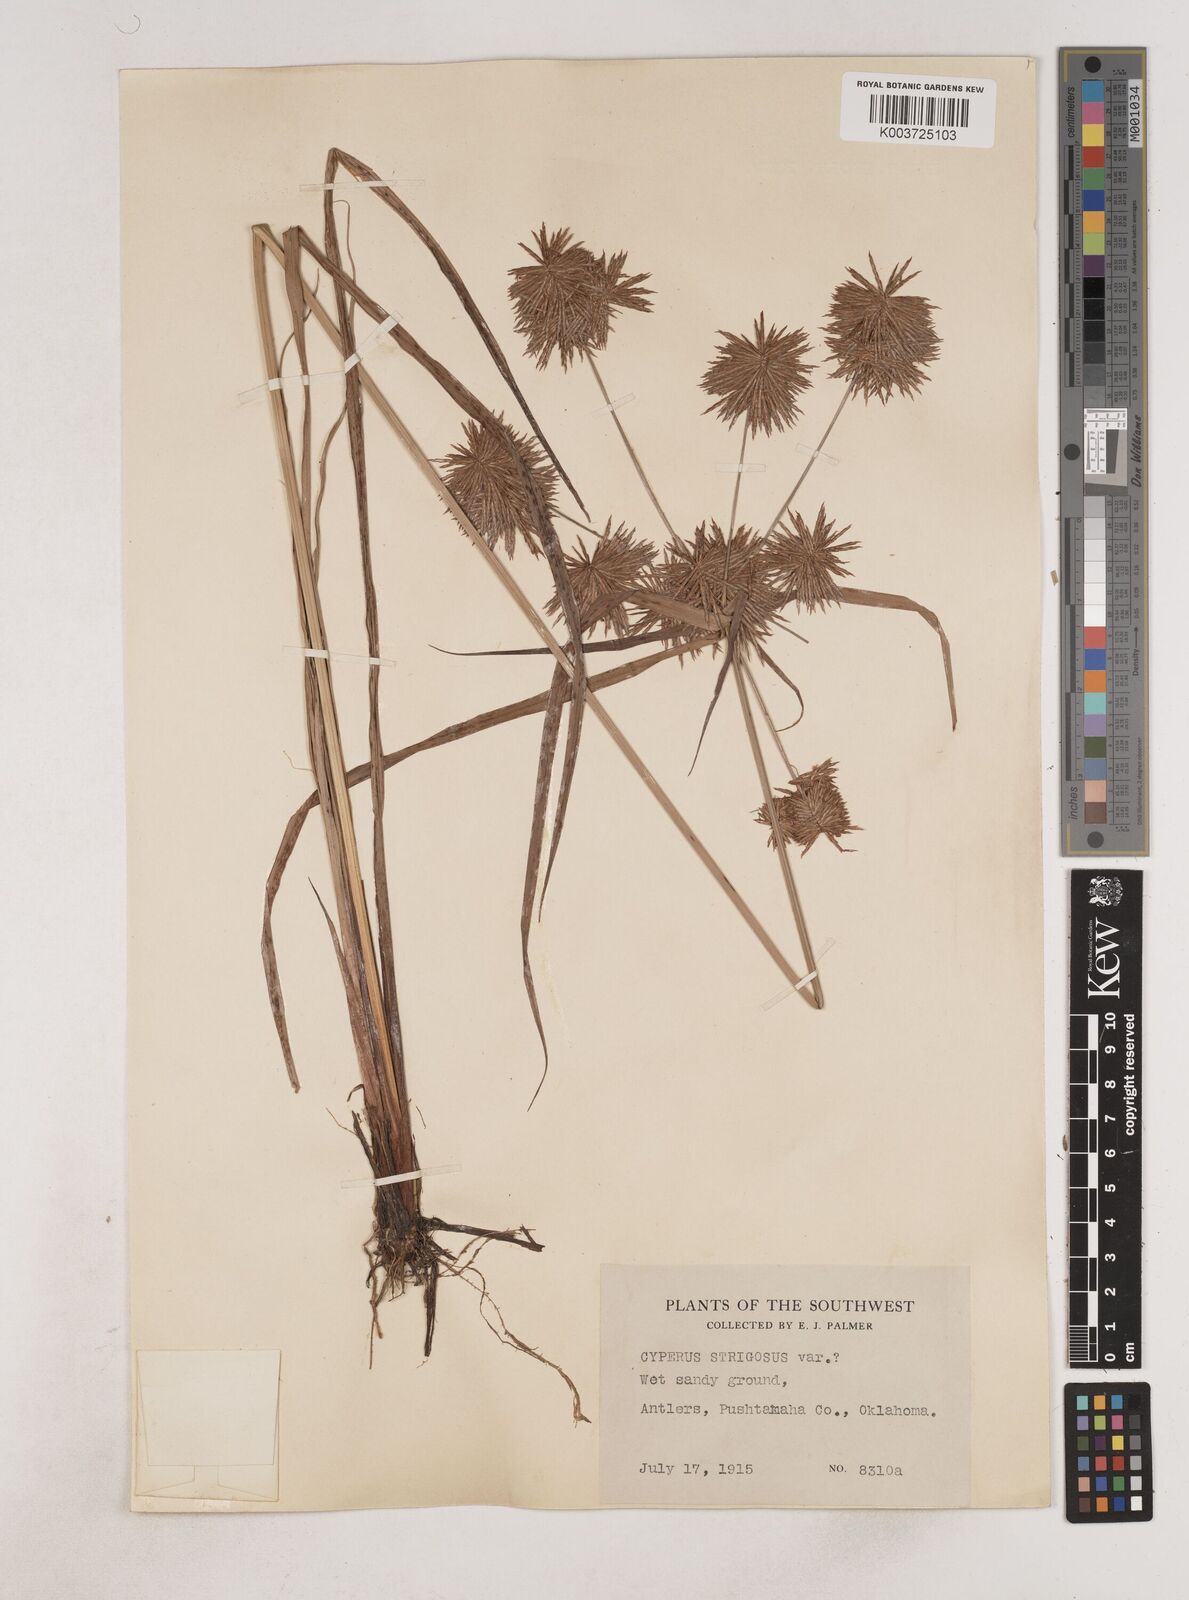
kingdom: Plantae
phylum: Tracheophyta
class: Liliopsida
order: Poales
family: Cyperaceae
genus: Cyperus
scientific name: Cyperus strigosus
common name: False nutsedge
